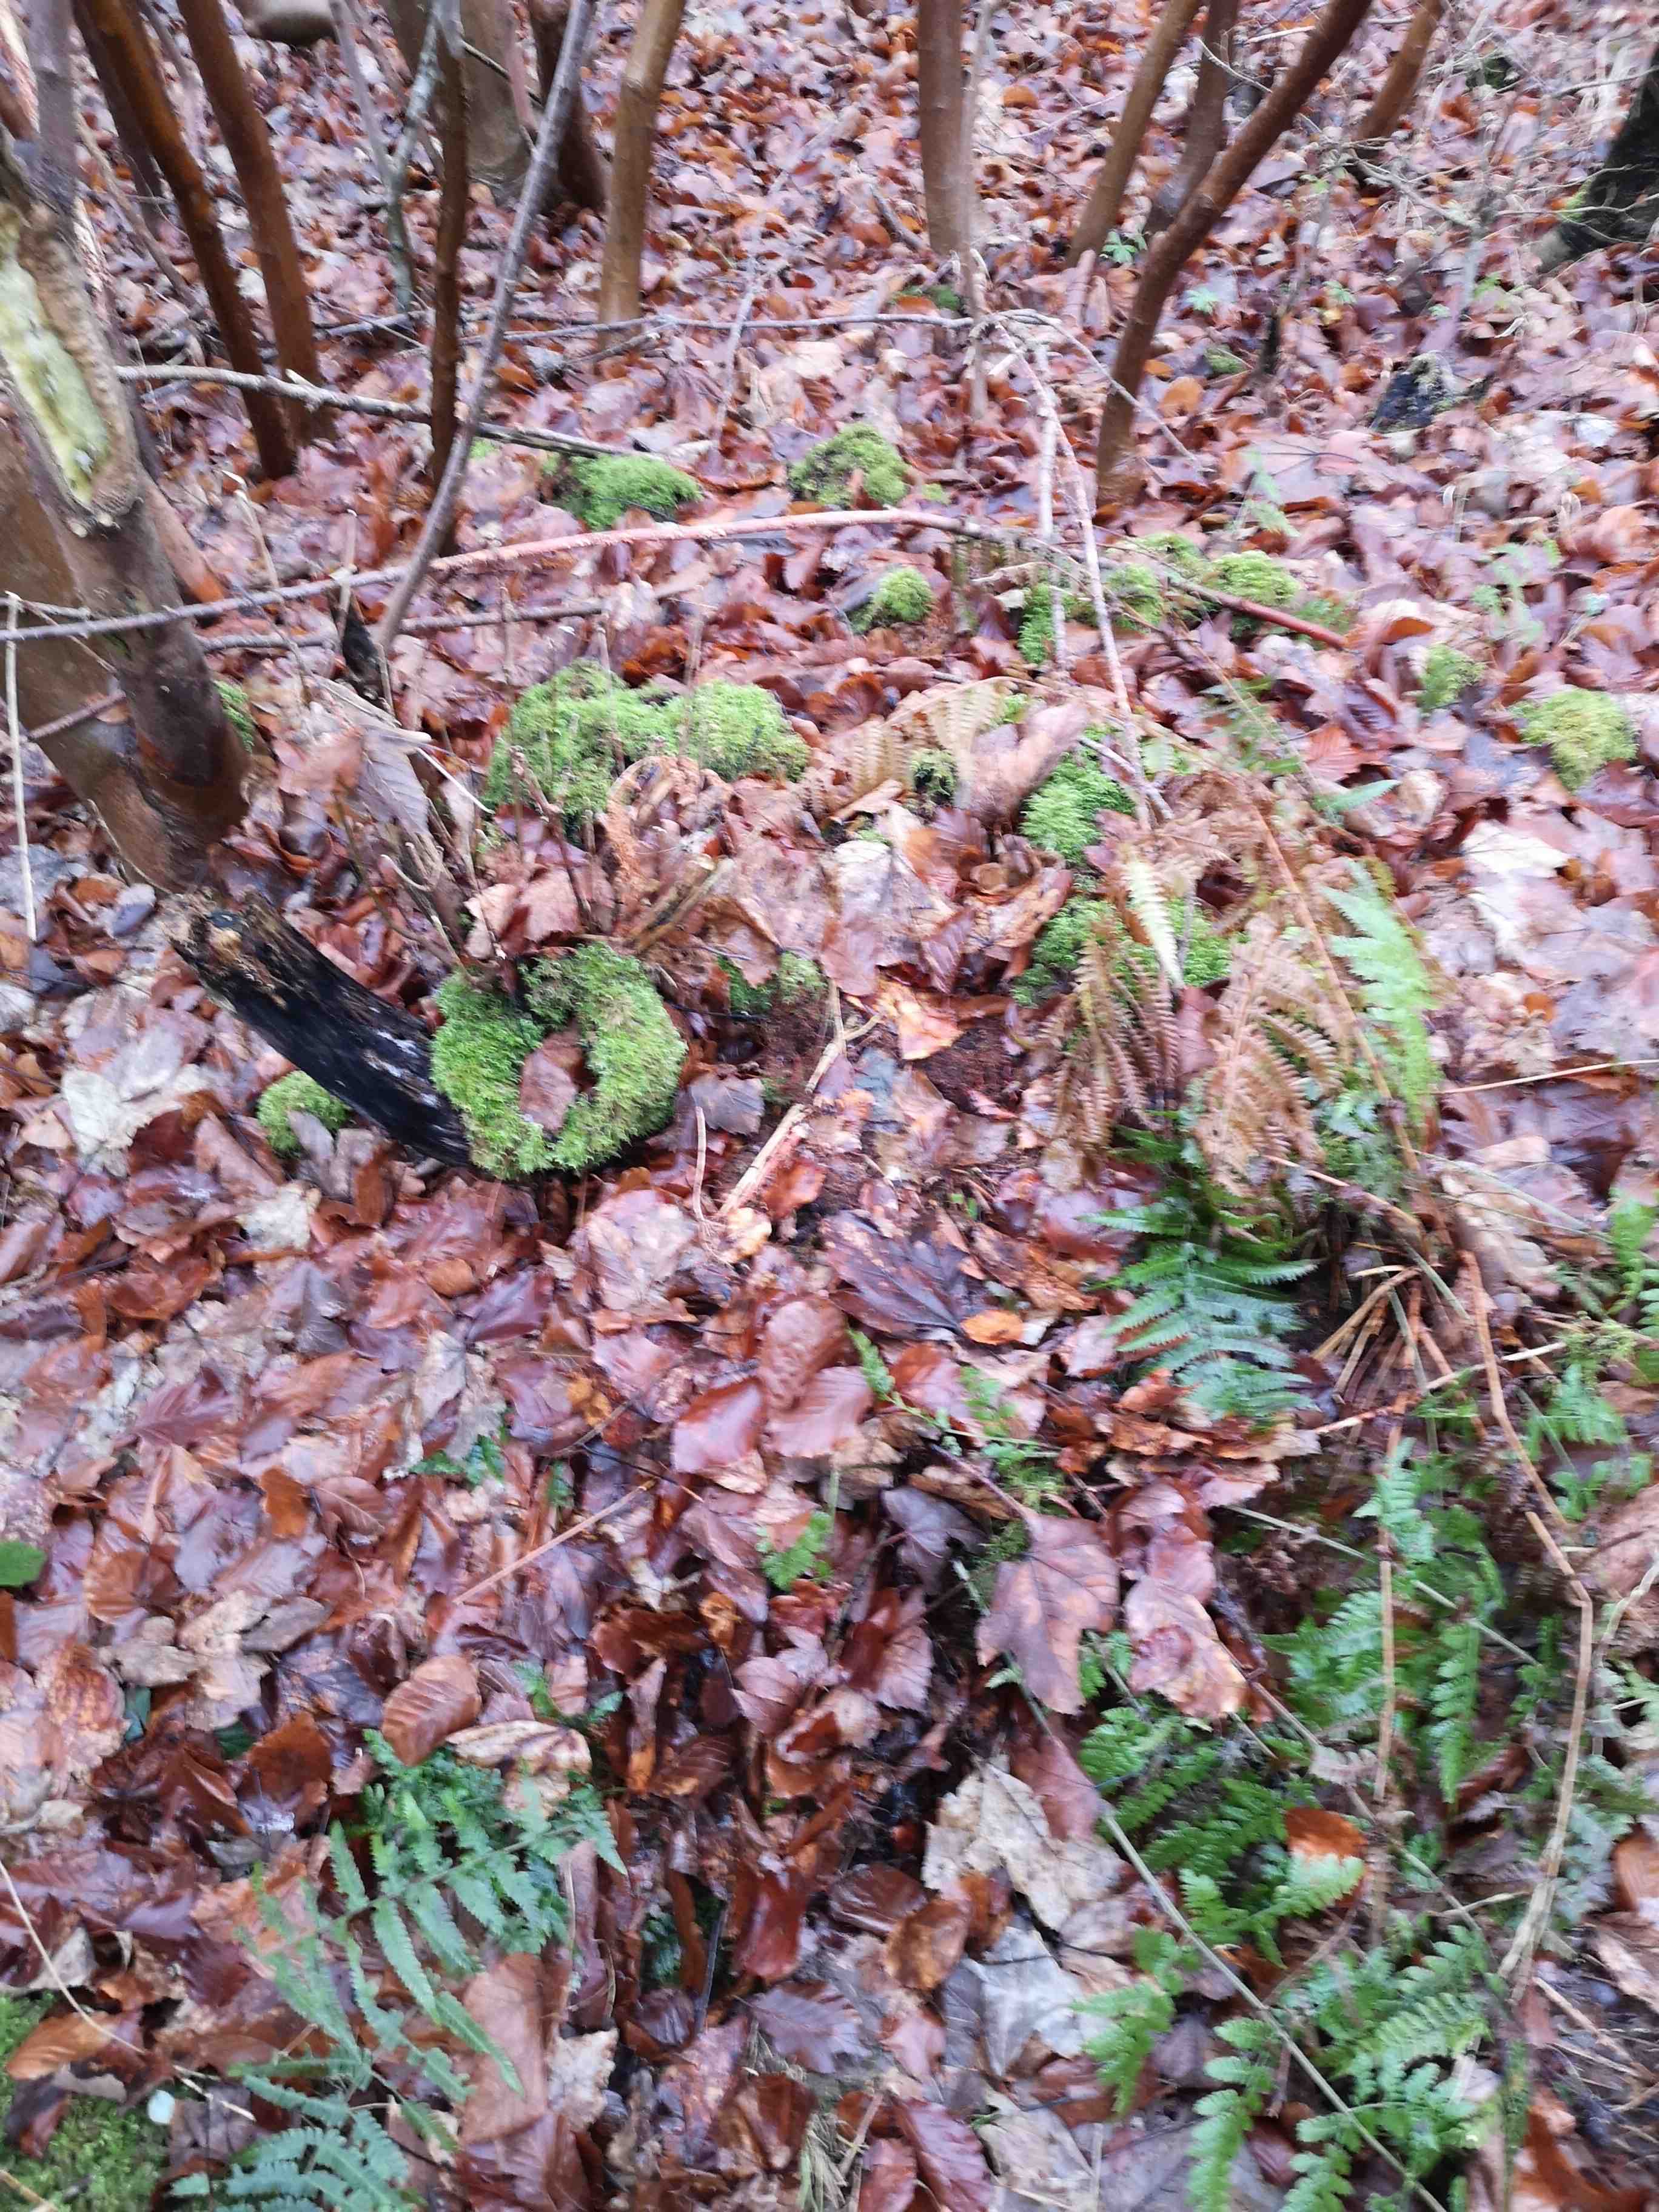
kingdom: Fungi
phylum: Basidiomycota
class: Agaricomycetes
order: Agaricales
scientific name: Agaricales
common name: champignonordenen
